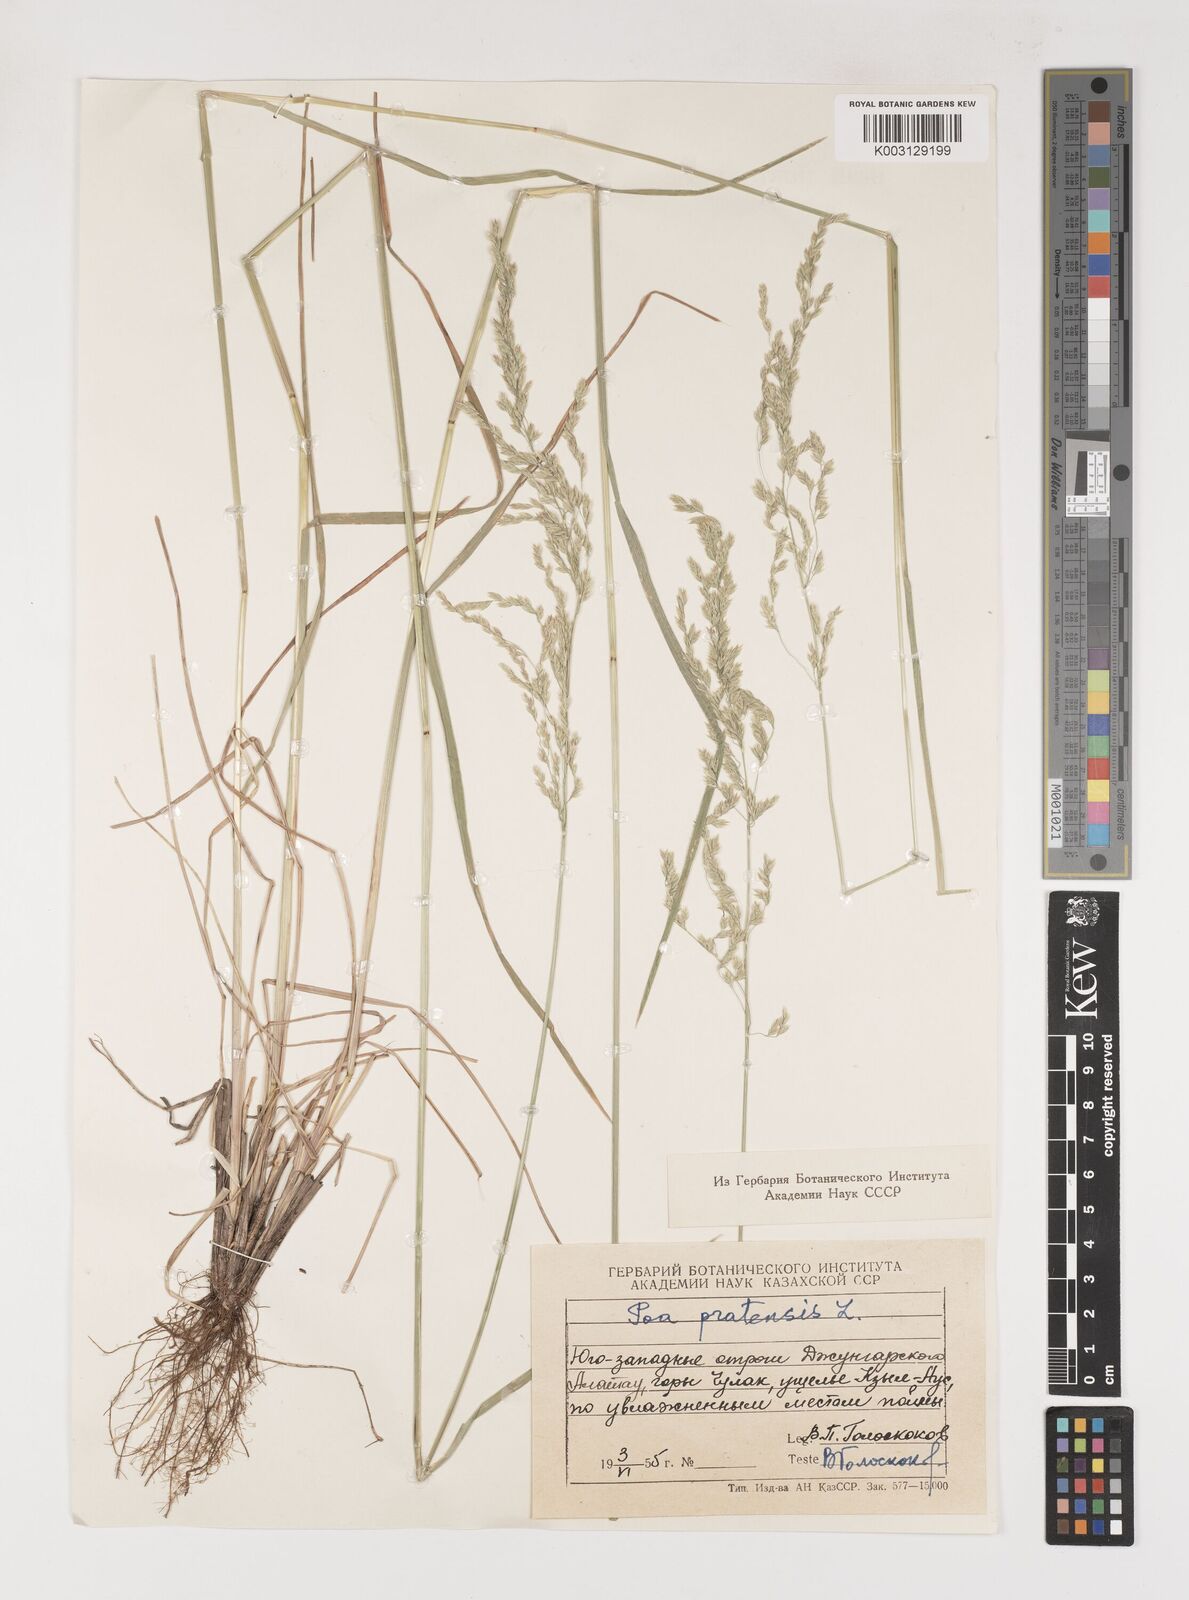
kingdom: Plantae
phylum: Tracheophyta
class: Liliopsida
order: Poales
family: Poaceae
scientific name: Poaceae
